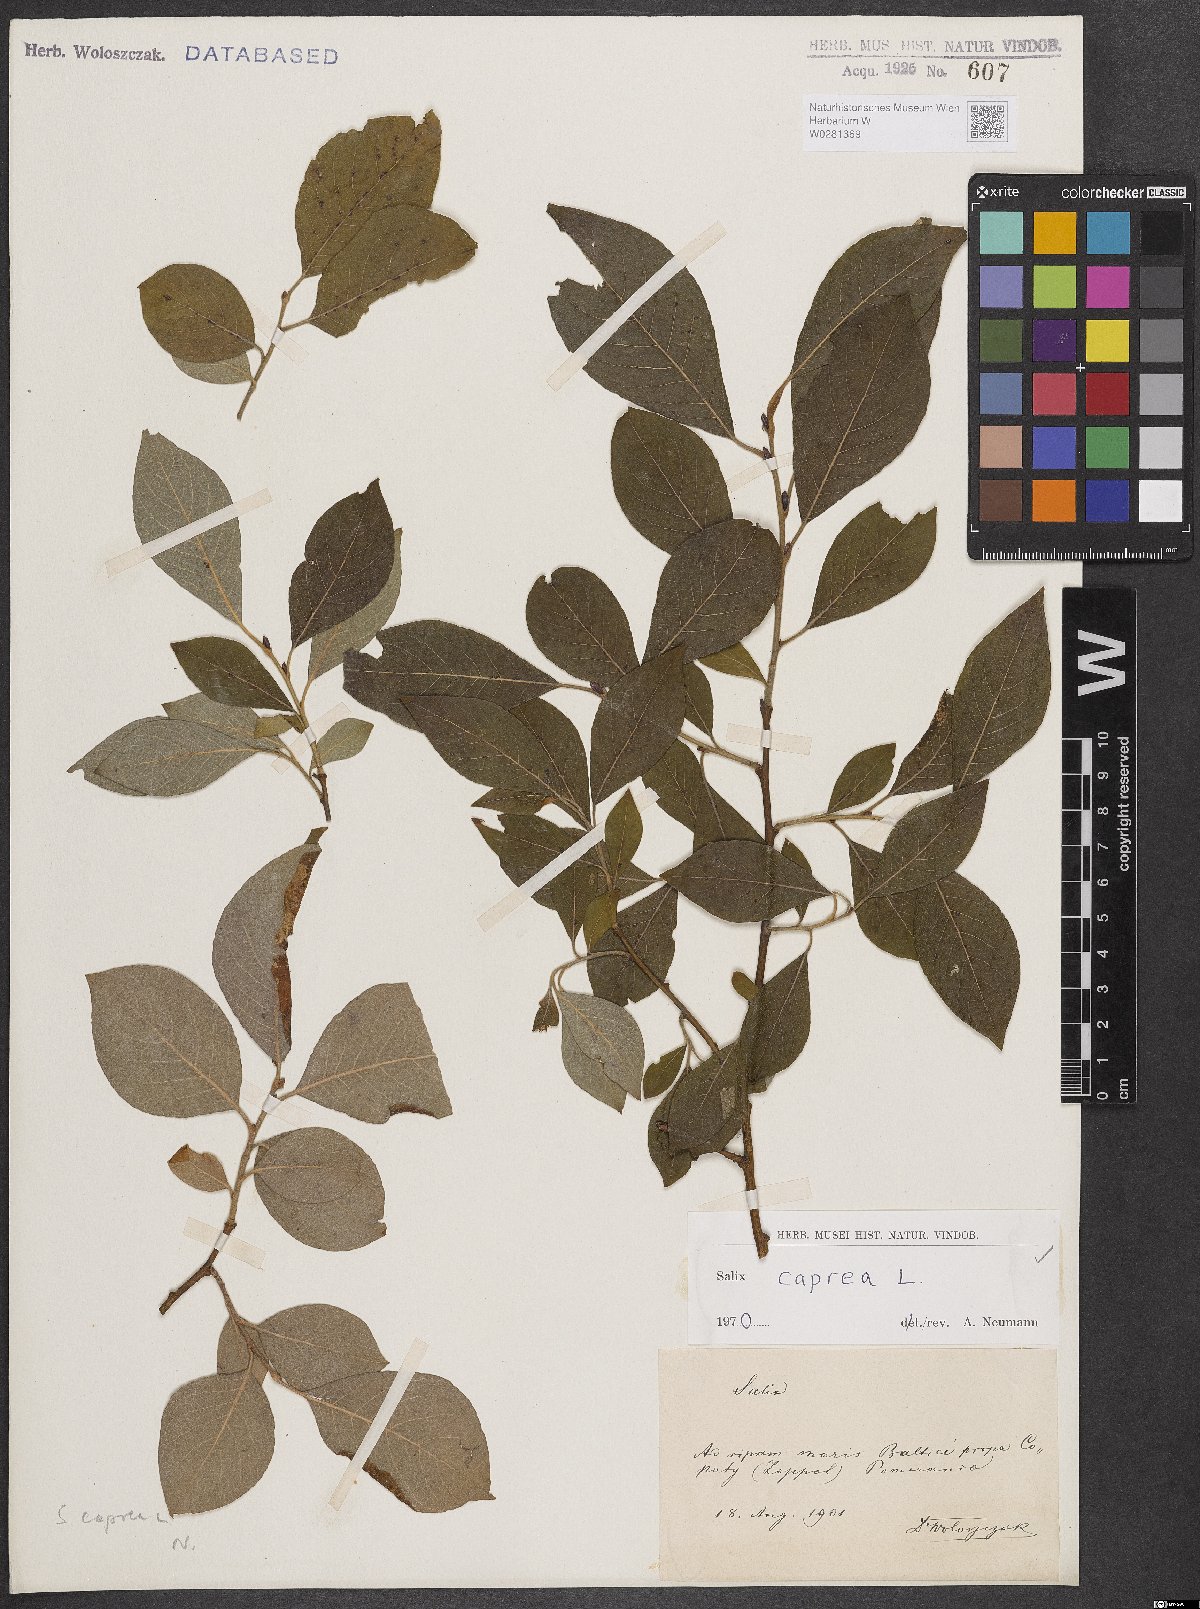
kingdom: Plantae
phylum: Tracheophyta
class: Magnoliopsida
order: Malpighiales
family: Salicaceae
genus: Salix
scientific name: Salix caprea
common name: Goat willow
